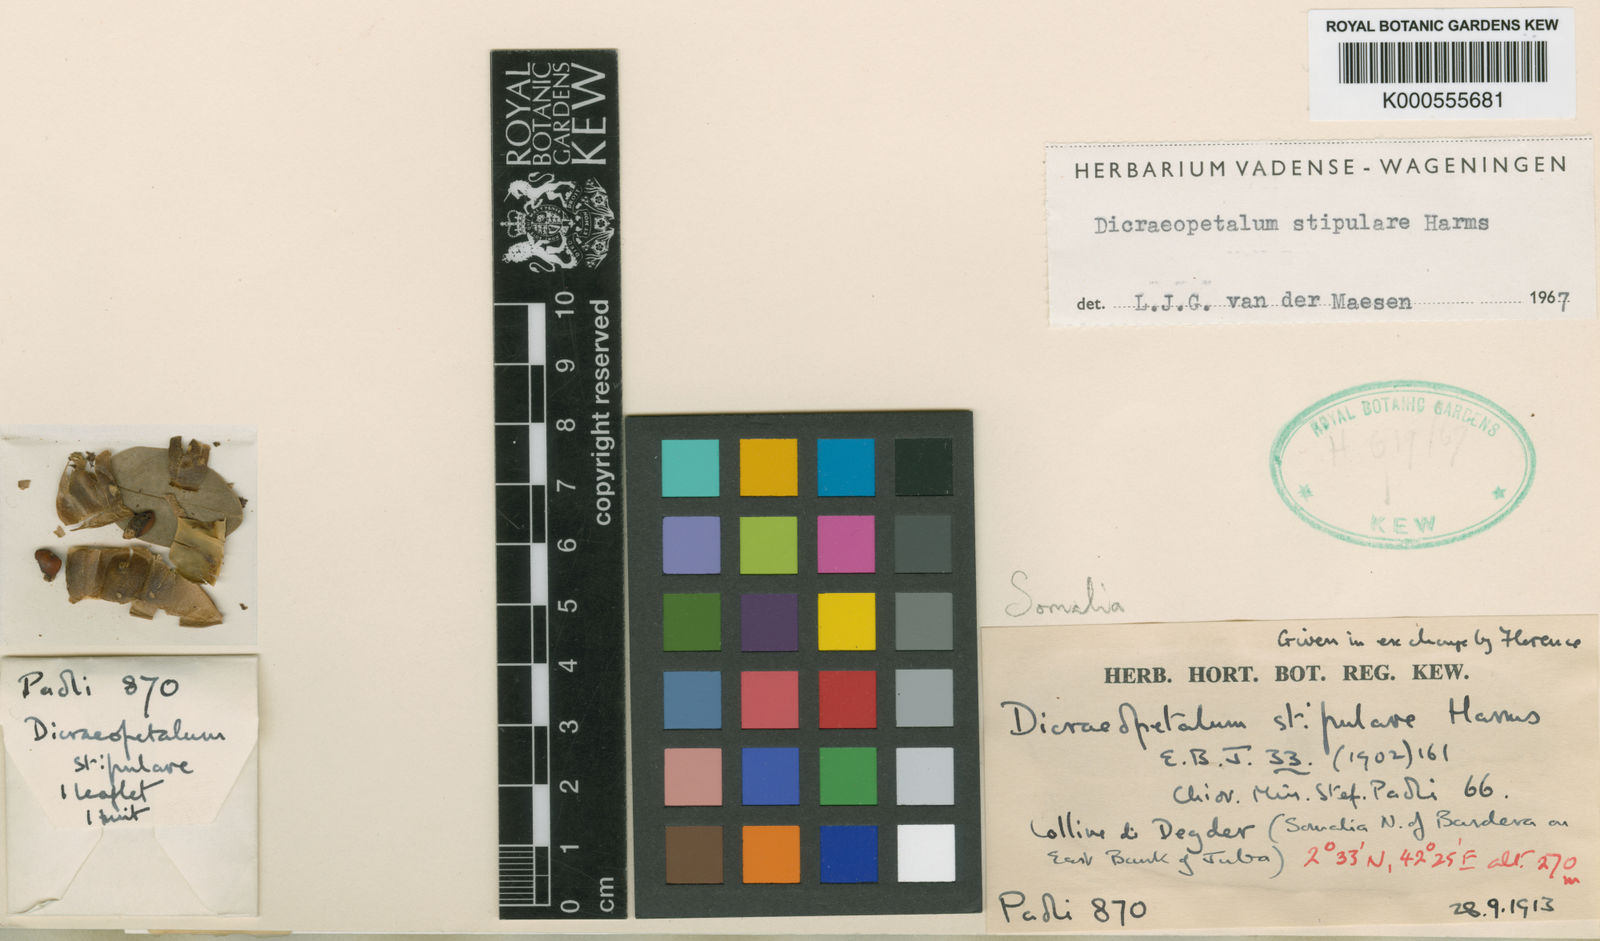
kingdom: Plantae
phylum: Tracheophyta
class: Magnoliopsida
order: Fabales
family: Fabaceae
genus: Dicraeopetalum
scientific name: Dicraeopetalum stipulare
